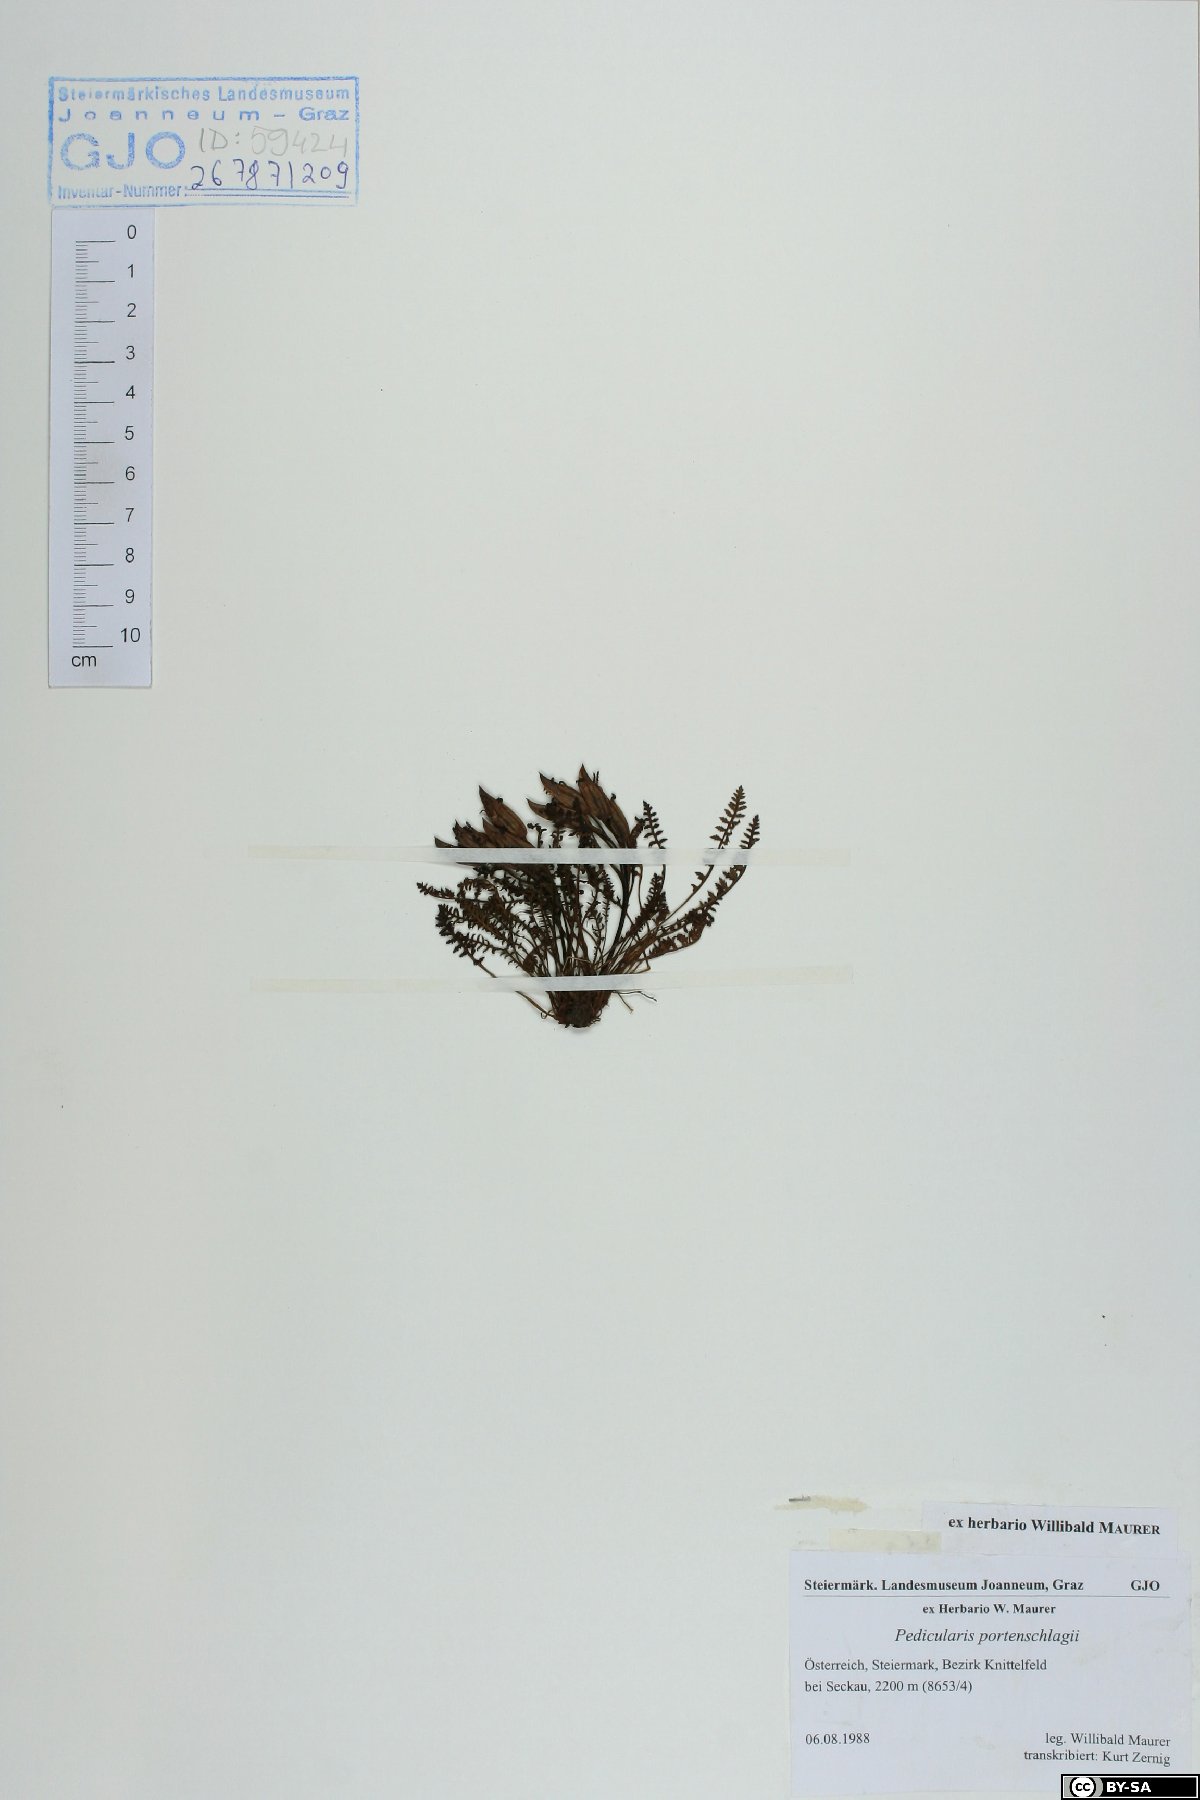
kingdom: Plantae
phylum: Tracheophyta
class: Magnoliopsida
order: Lamiales
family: Orobanchaceae
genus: Pedicularis
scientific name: Pedicularis portenschlagii
